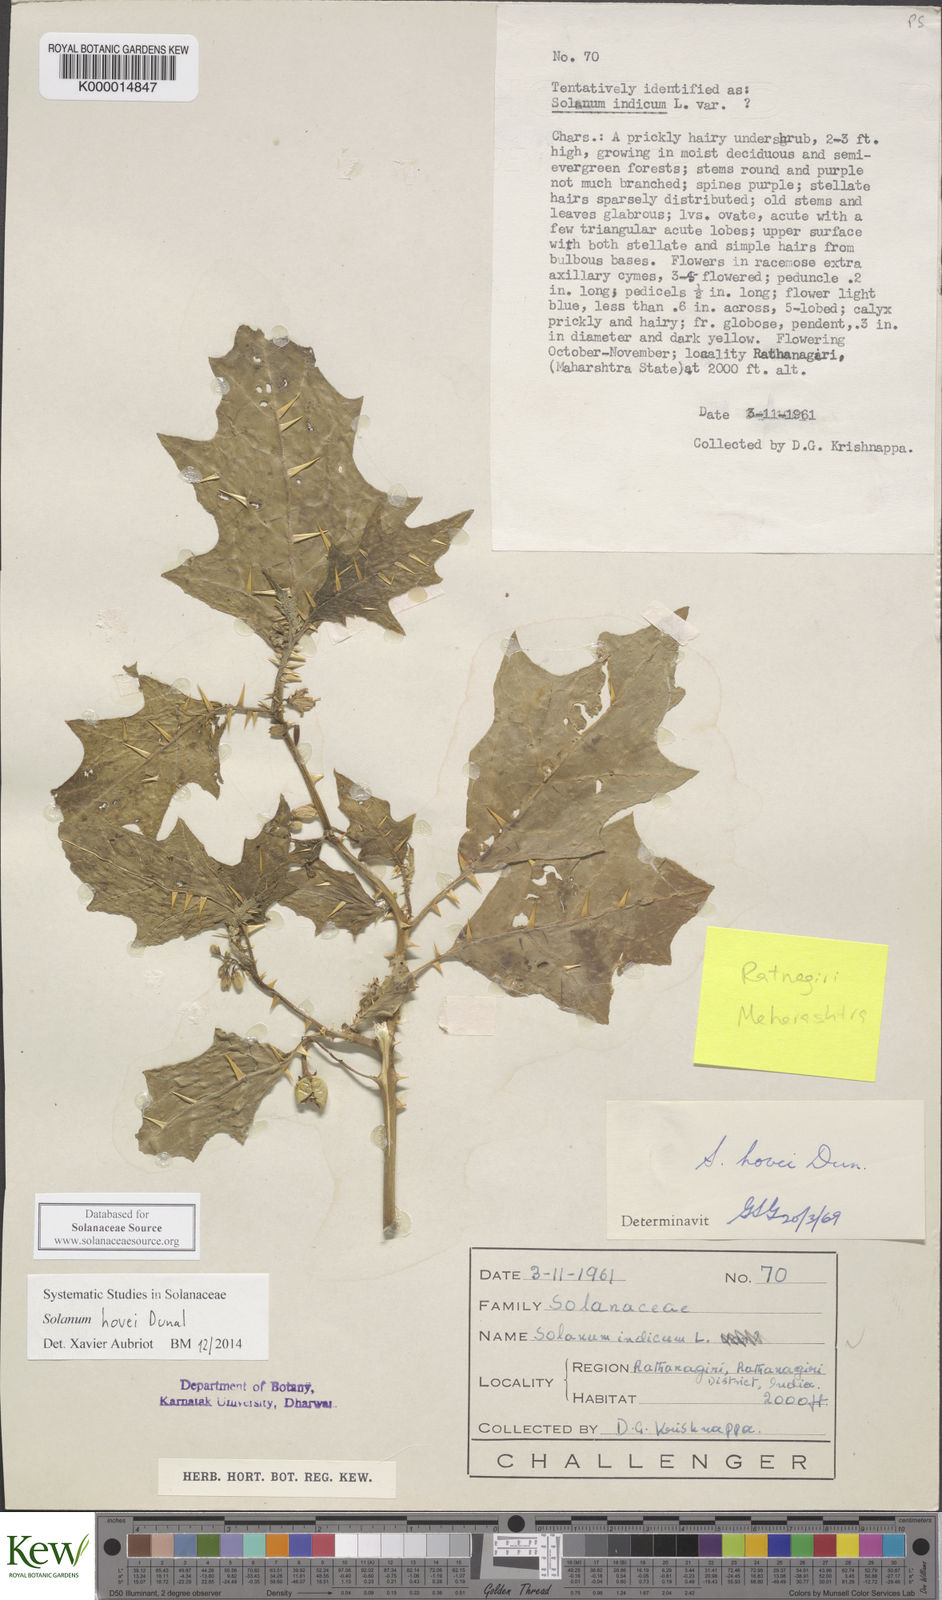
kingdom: Plantae
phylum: Tracheophyta
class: Magnoliopsida
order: Solanales
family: Solanaceae
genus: Solanum
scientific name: Solanum hovei
